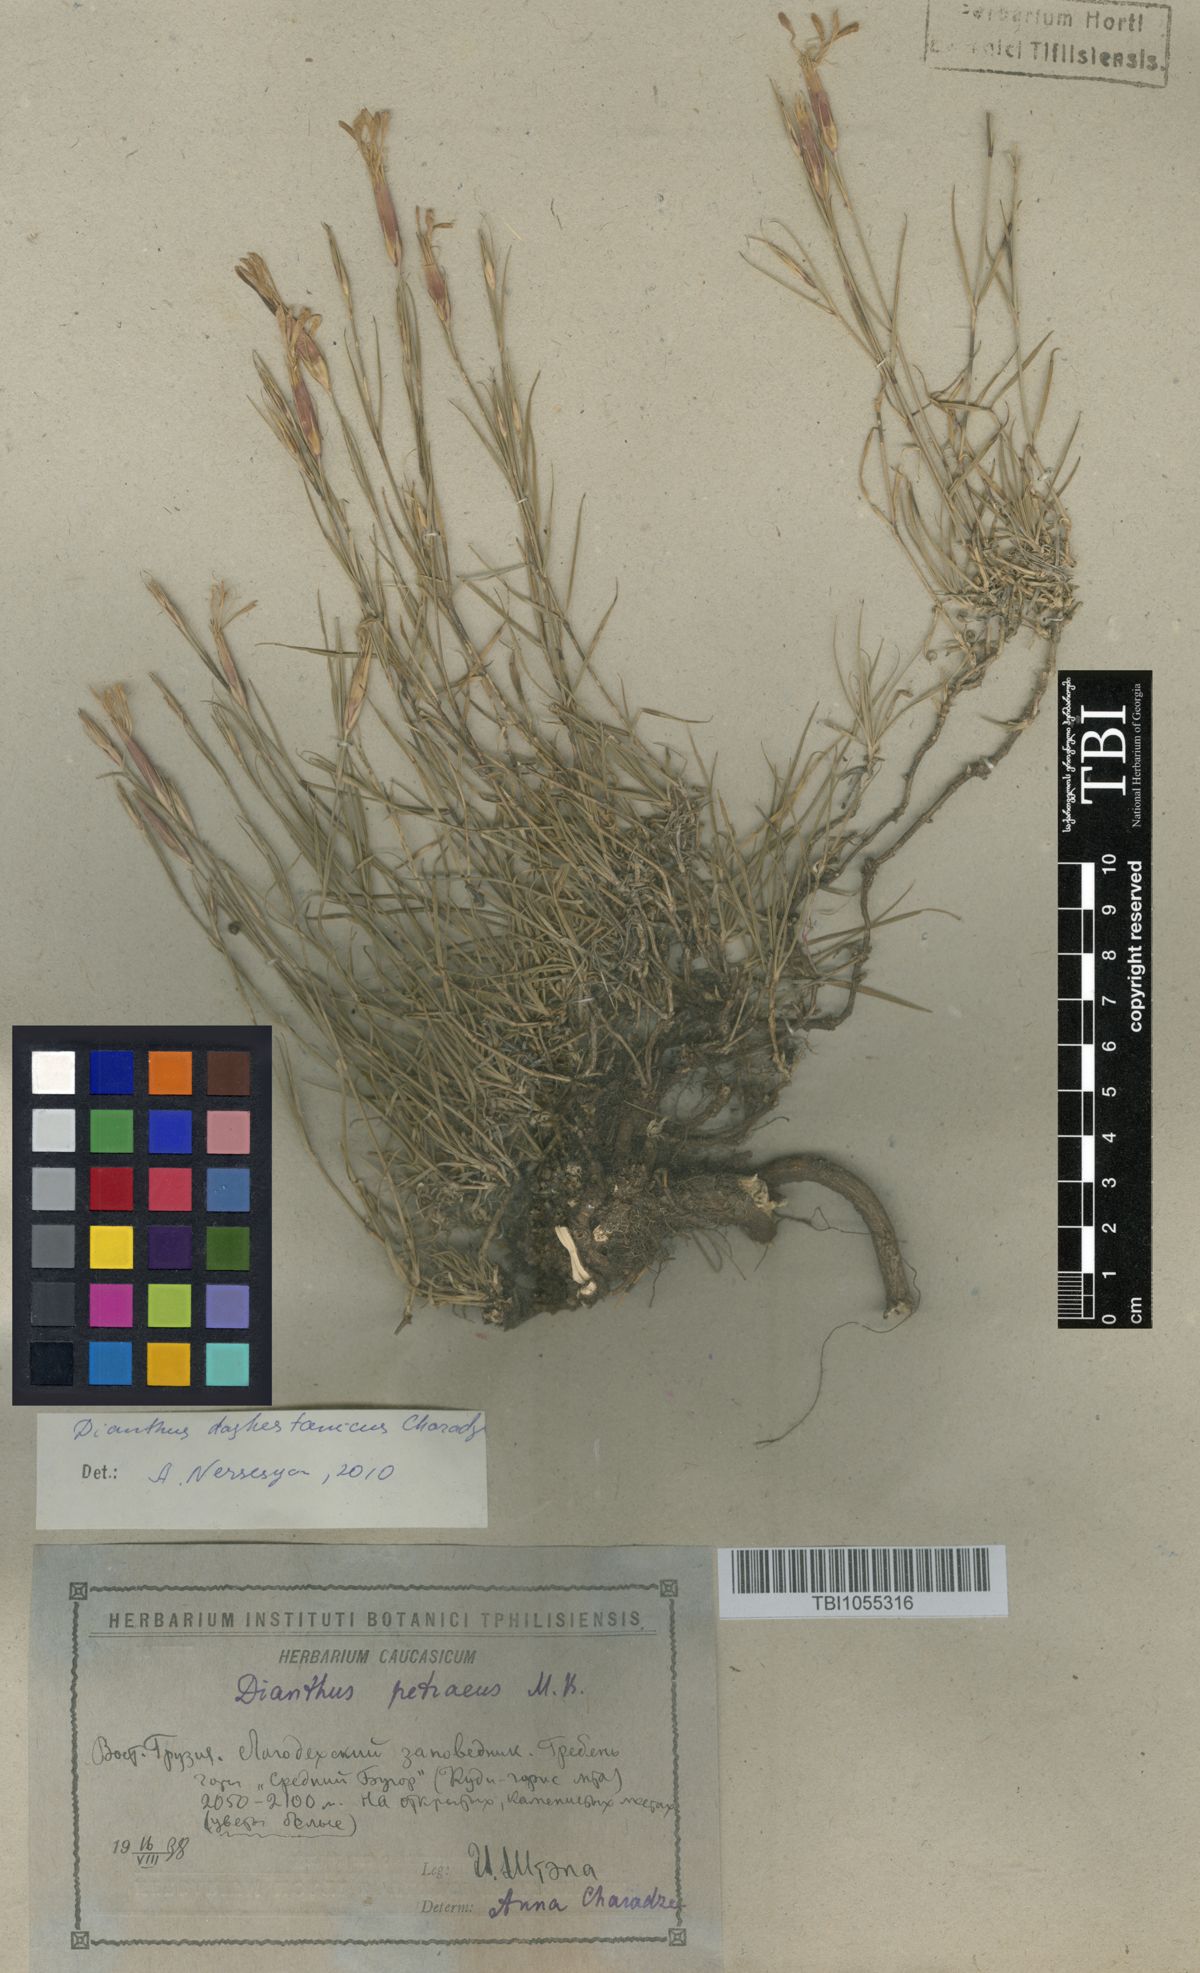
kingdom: Plantae
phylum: Tracheophyta
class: Magnoliopsida
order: Caryophyllales
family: Caryophyllaceae
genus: Dianthus
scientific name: Dianthus cretaceus
